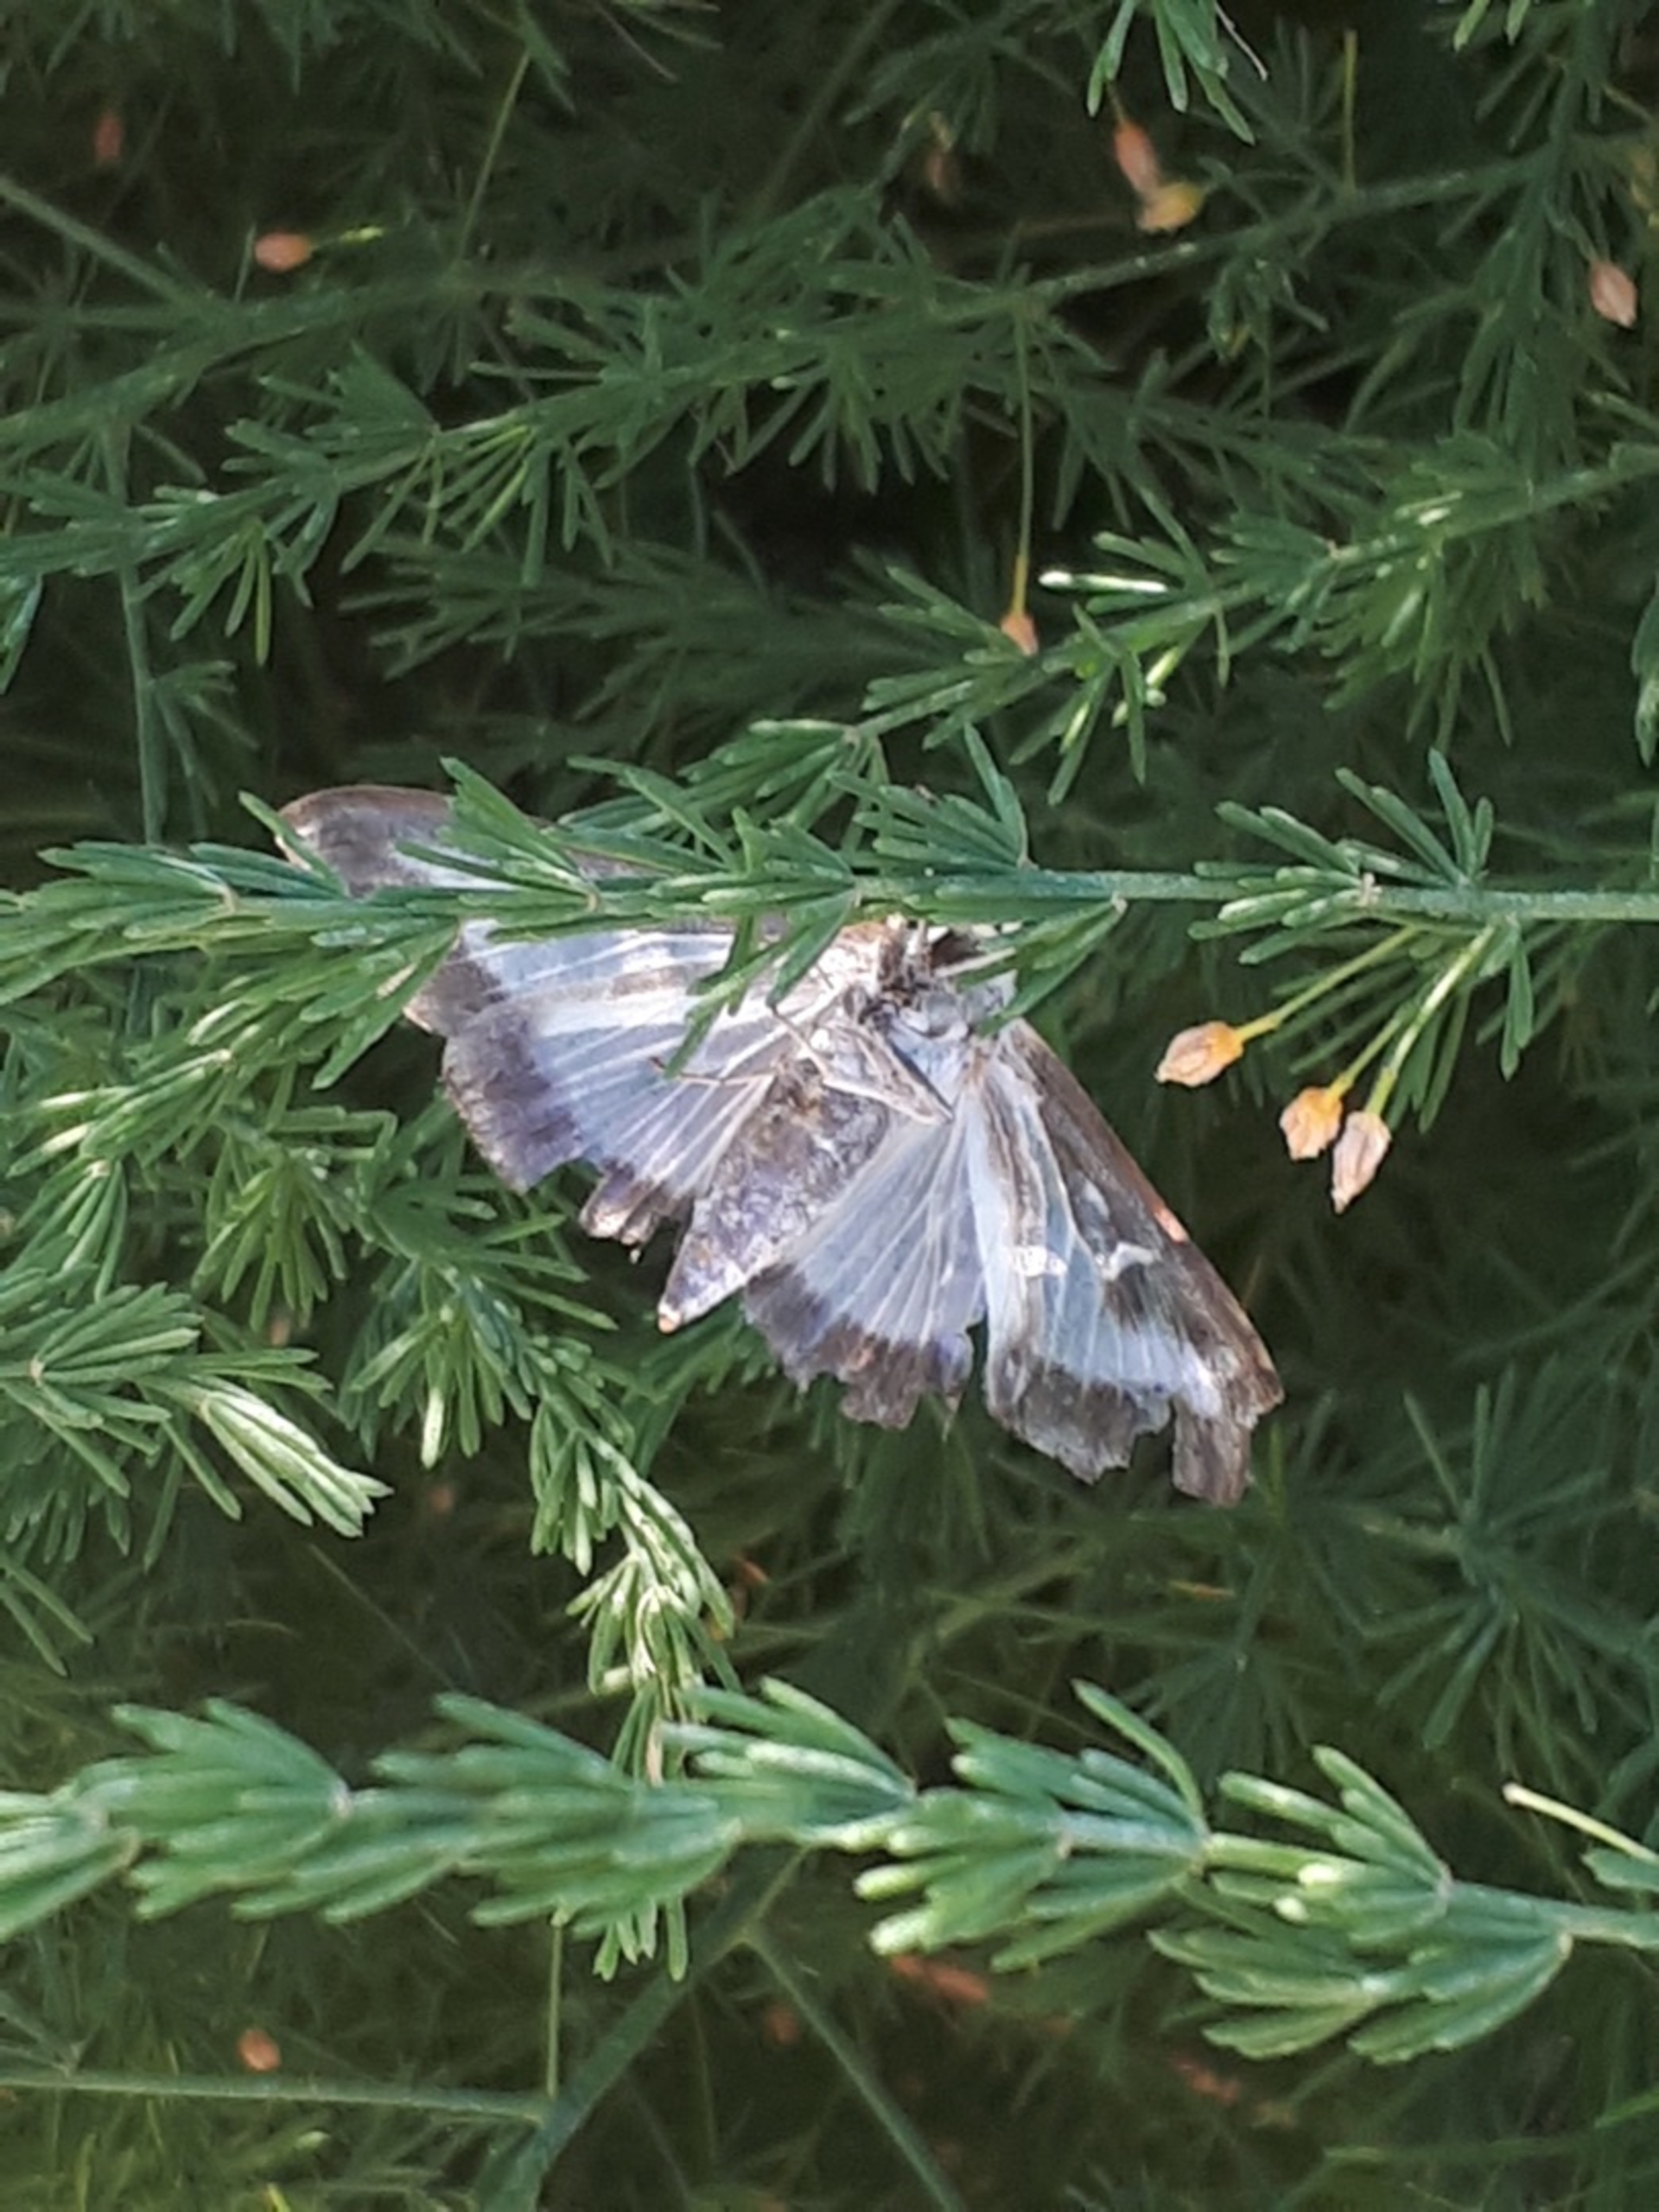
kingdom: Animalia
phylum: Arthropoda
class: Insecta
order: Lepidoptera
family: Crambidae
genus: Cydalima
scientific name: Cydalima perspectalis
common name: Buksbomhalvmøl
